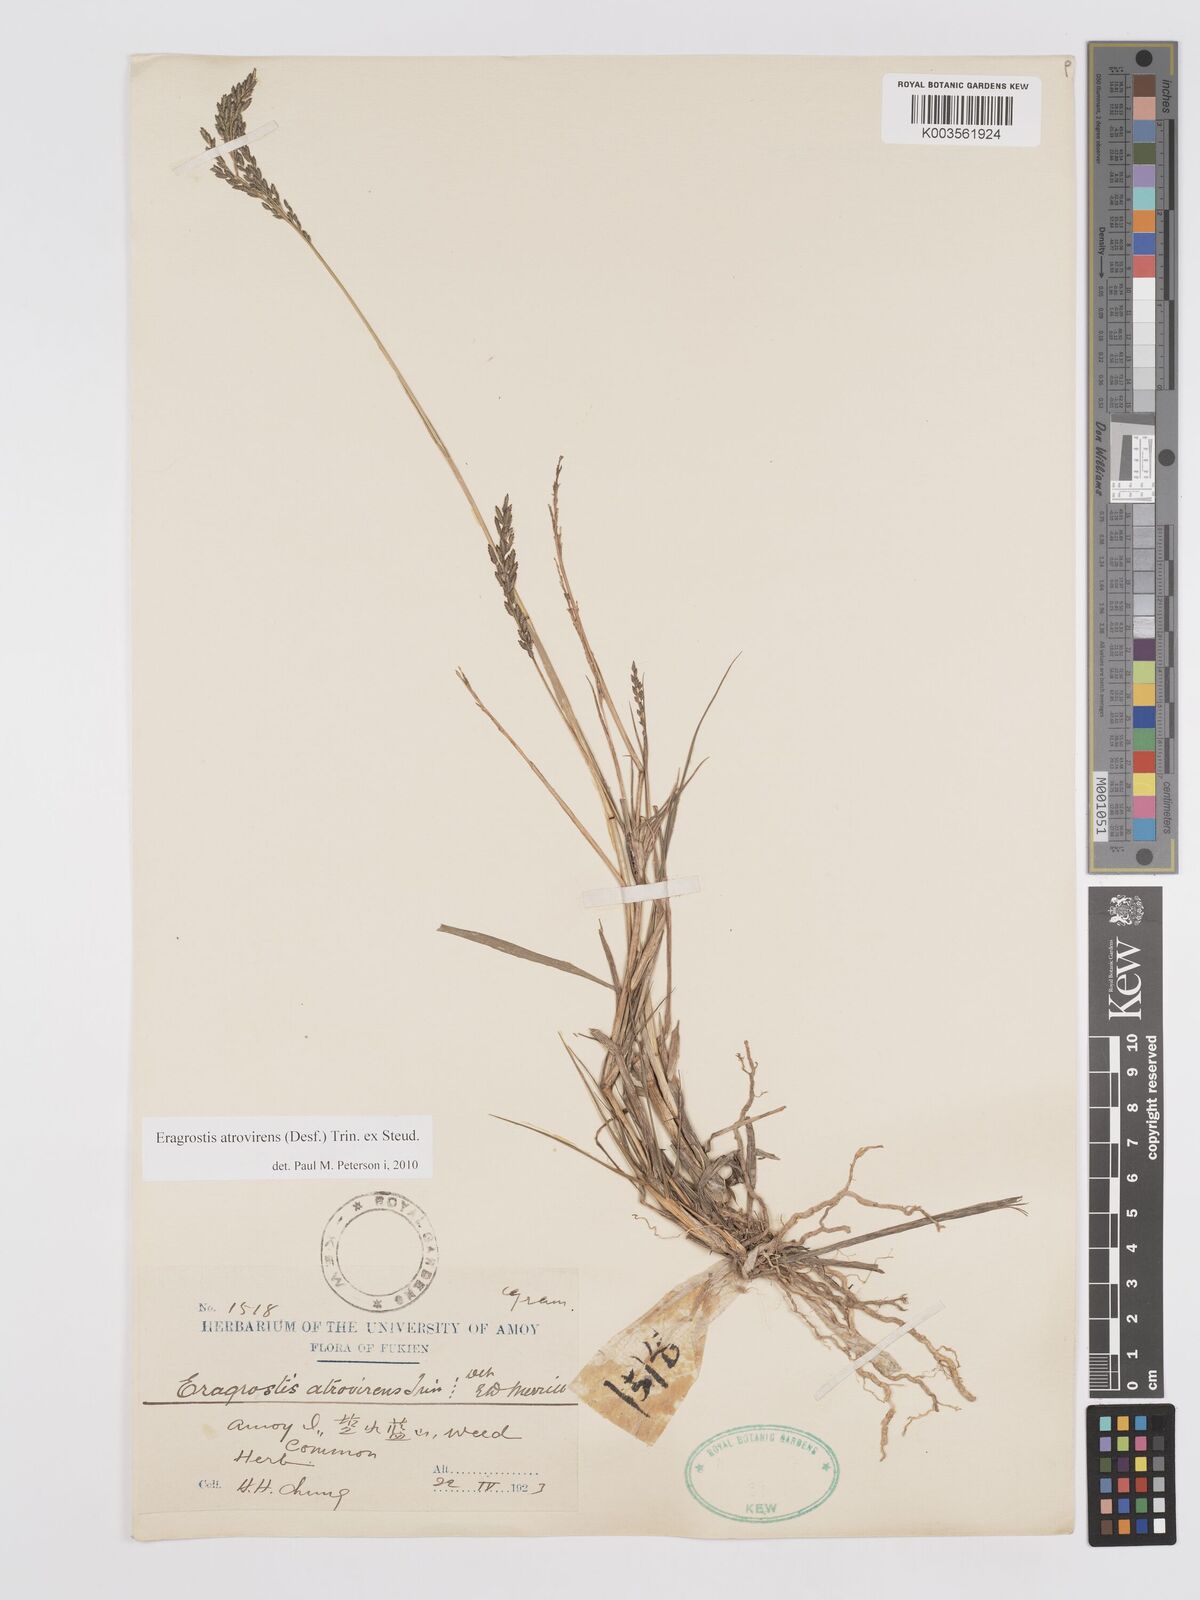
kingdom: Plantae
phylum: Tracheophyta
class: Liliopsida
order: Poales
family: Poaceae
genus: Eragrostis
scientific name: Eragrostis atrovirens
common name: Thalia lovegrass
